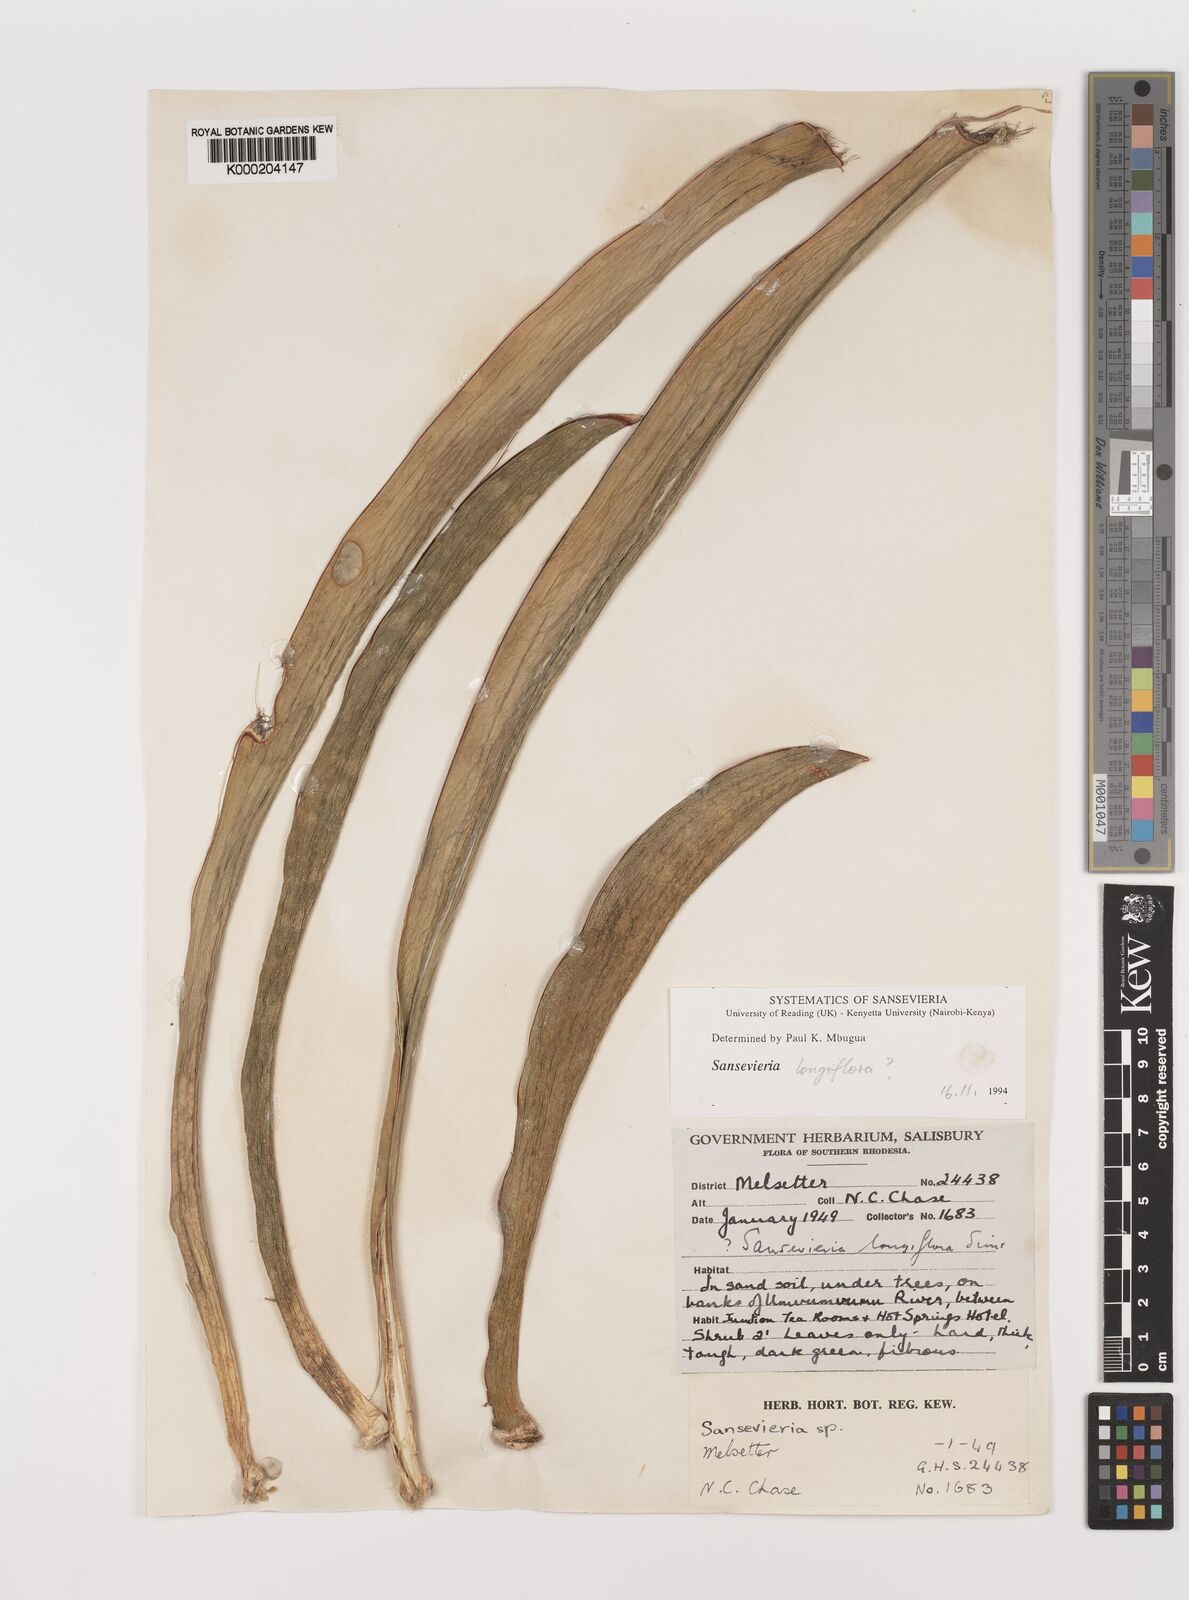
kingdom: Plantae
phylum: Tracheophyta
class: Liliopsida
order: Asparagales
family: Asparagaceae
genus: Dracaena
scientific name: Dracaena
